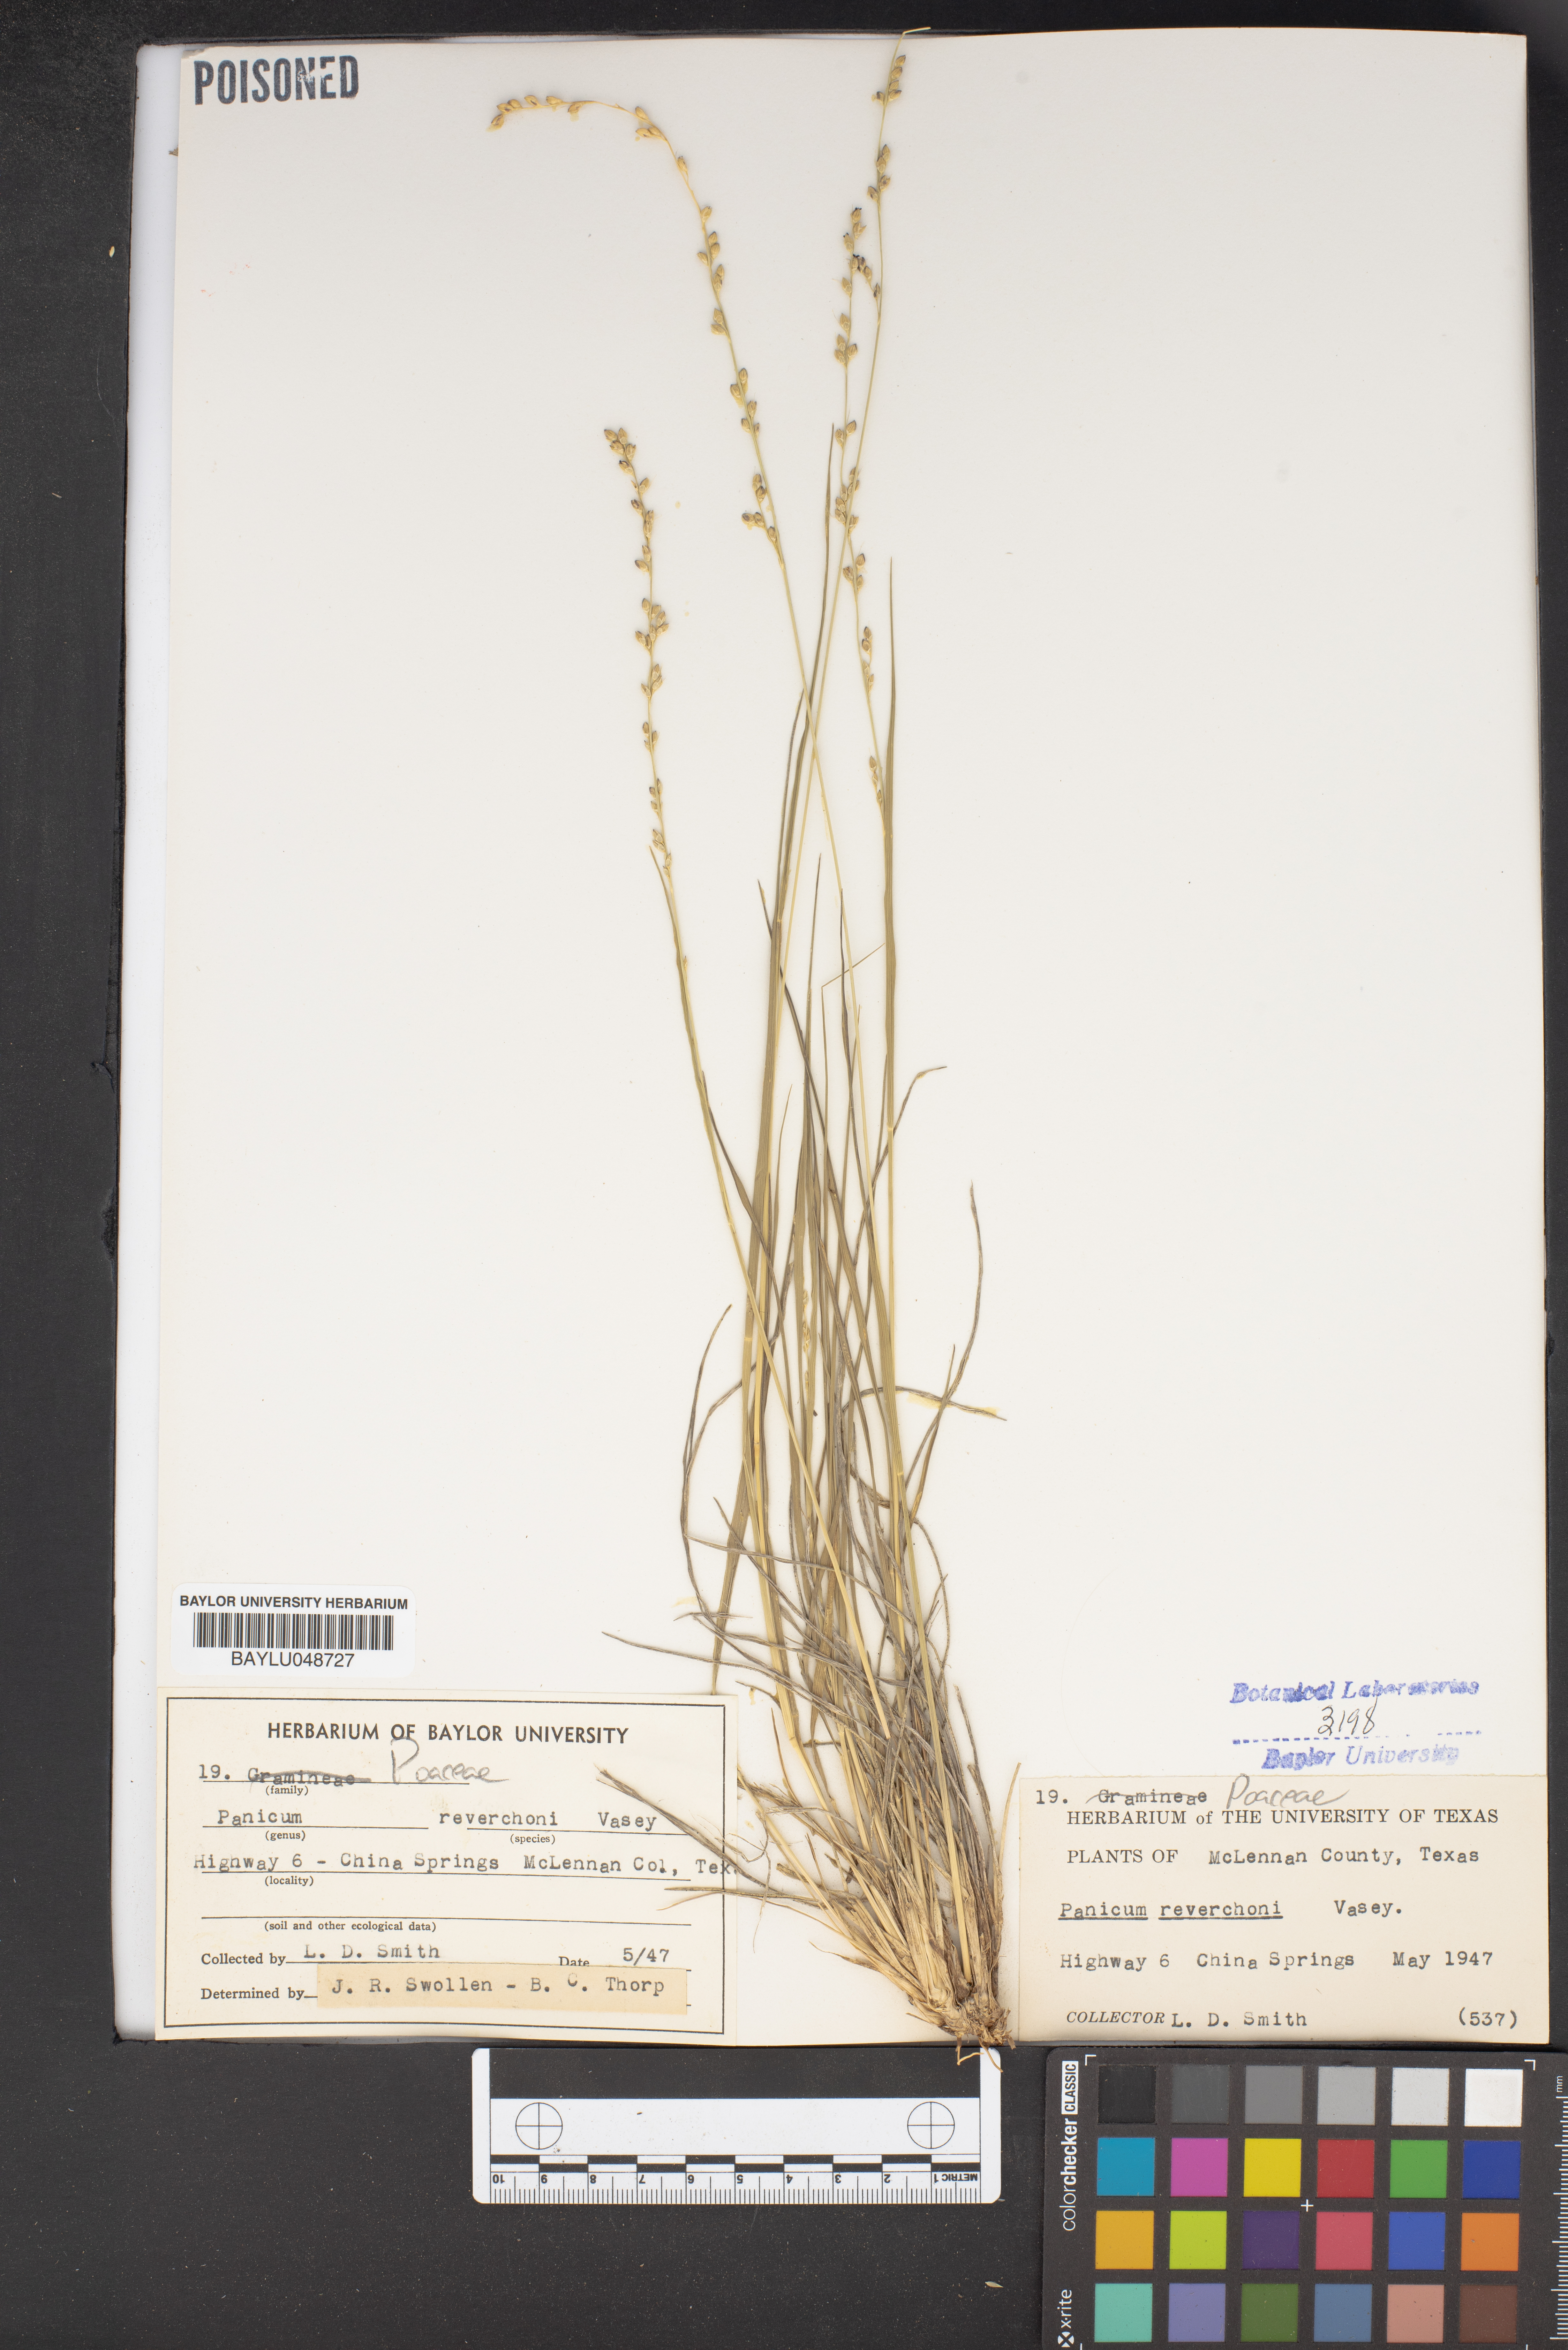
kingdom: Plantae
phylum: Tracheophyta
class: Liliopsida
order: Poales
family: Poaceae
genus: Setaria
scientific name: Setaria reverchonii
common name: Reverchon's bristle grass
